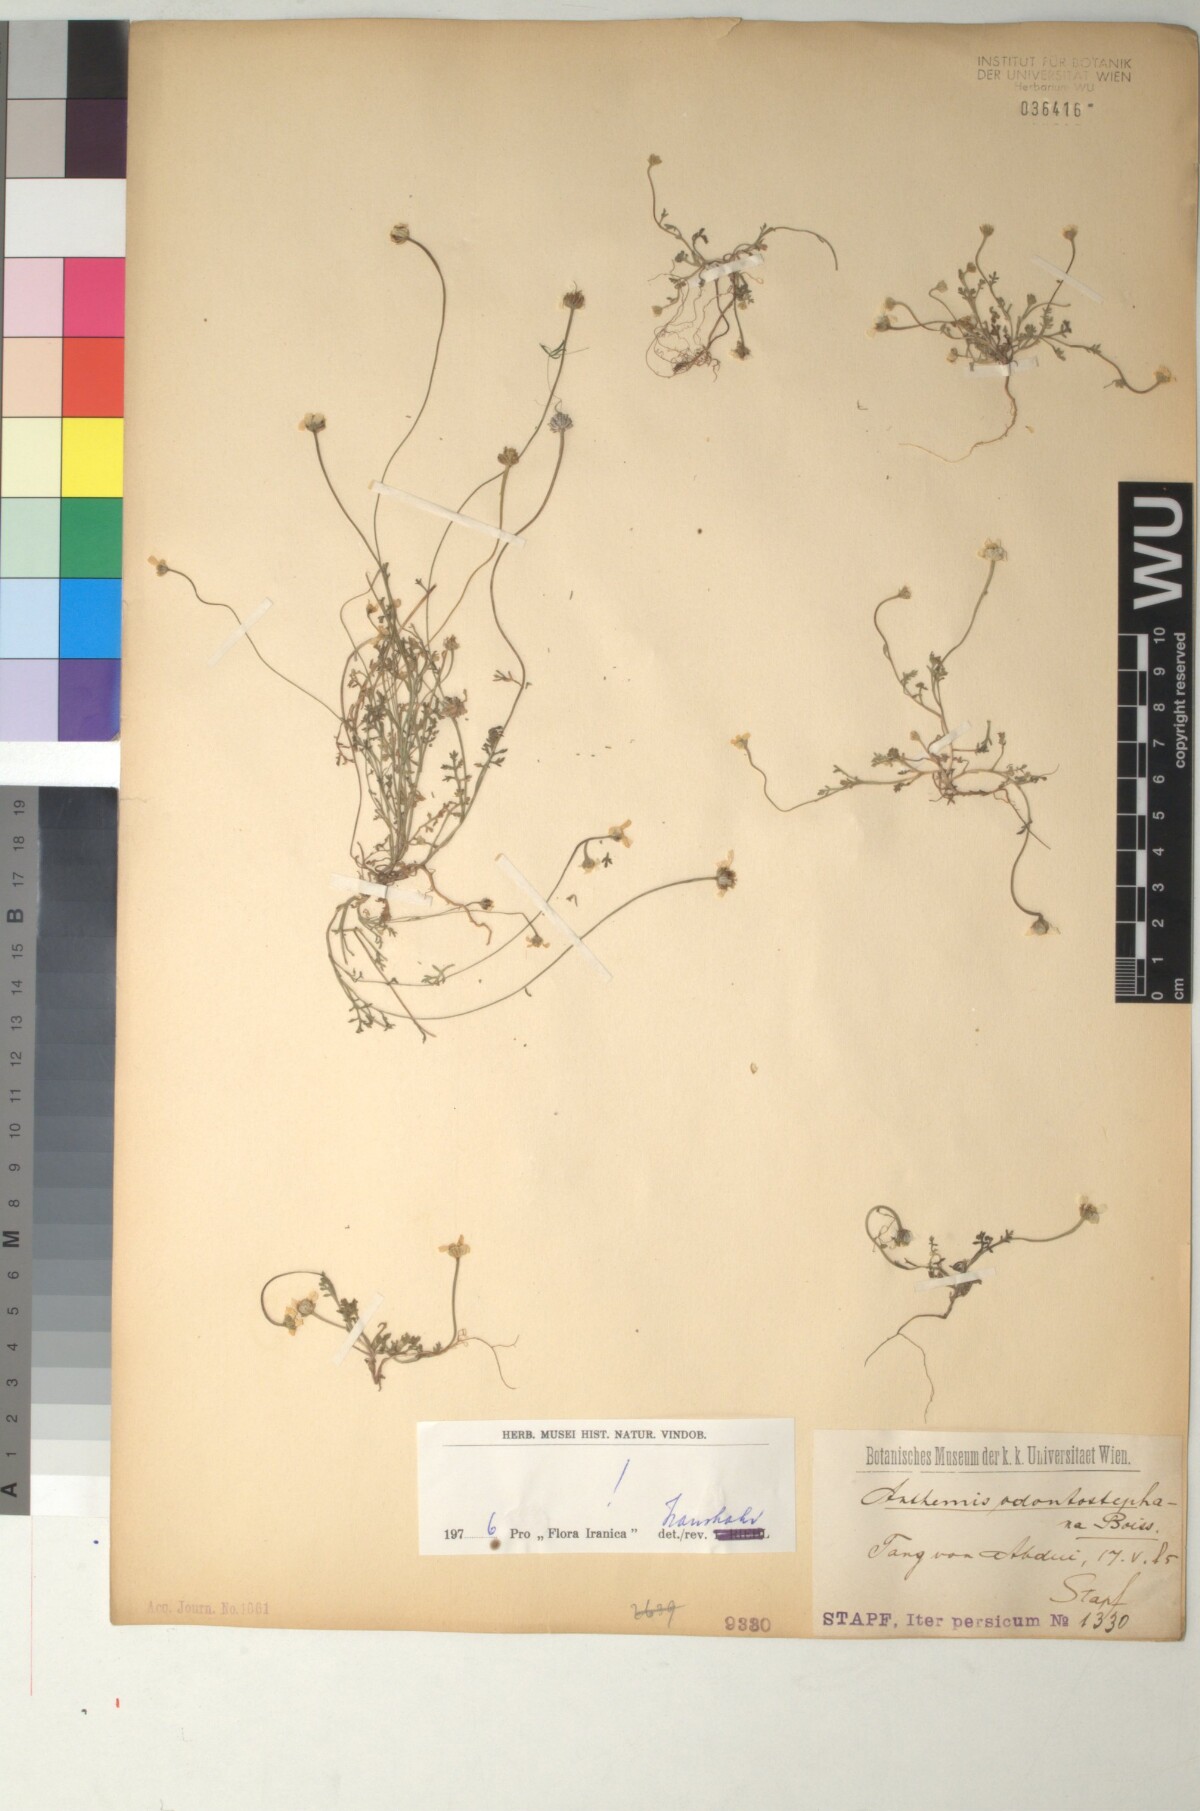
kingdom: Plantae
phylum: Tracheophyta
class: Magnoliopsida
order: Asterales
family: Asteraceae
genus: Anthemis
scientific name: Anthemis odontostephana
